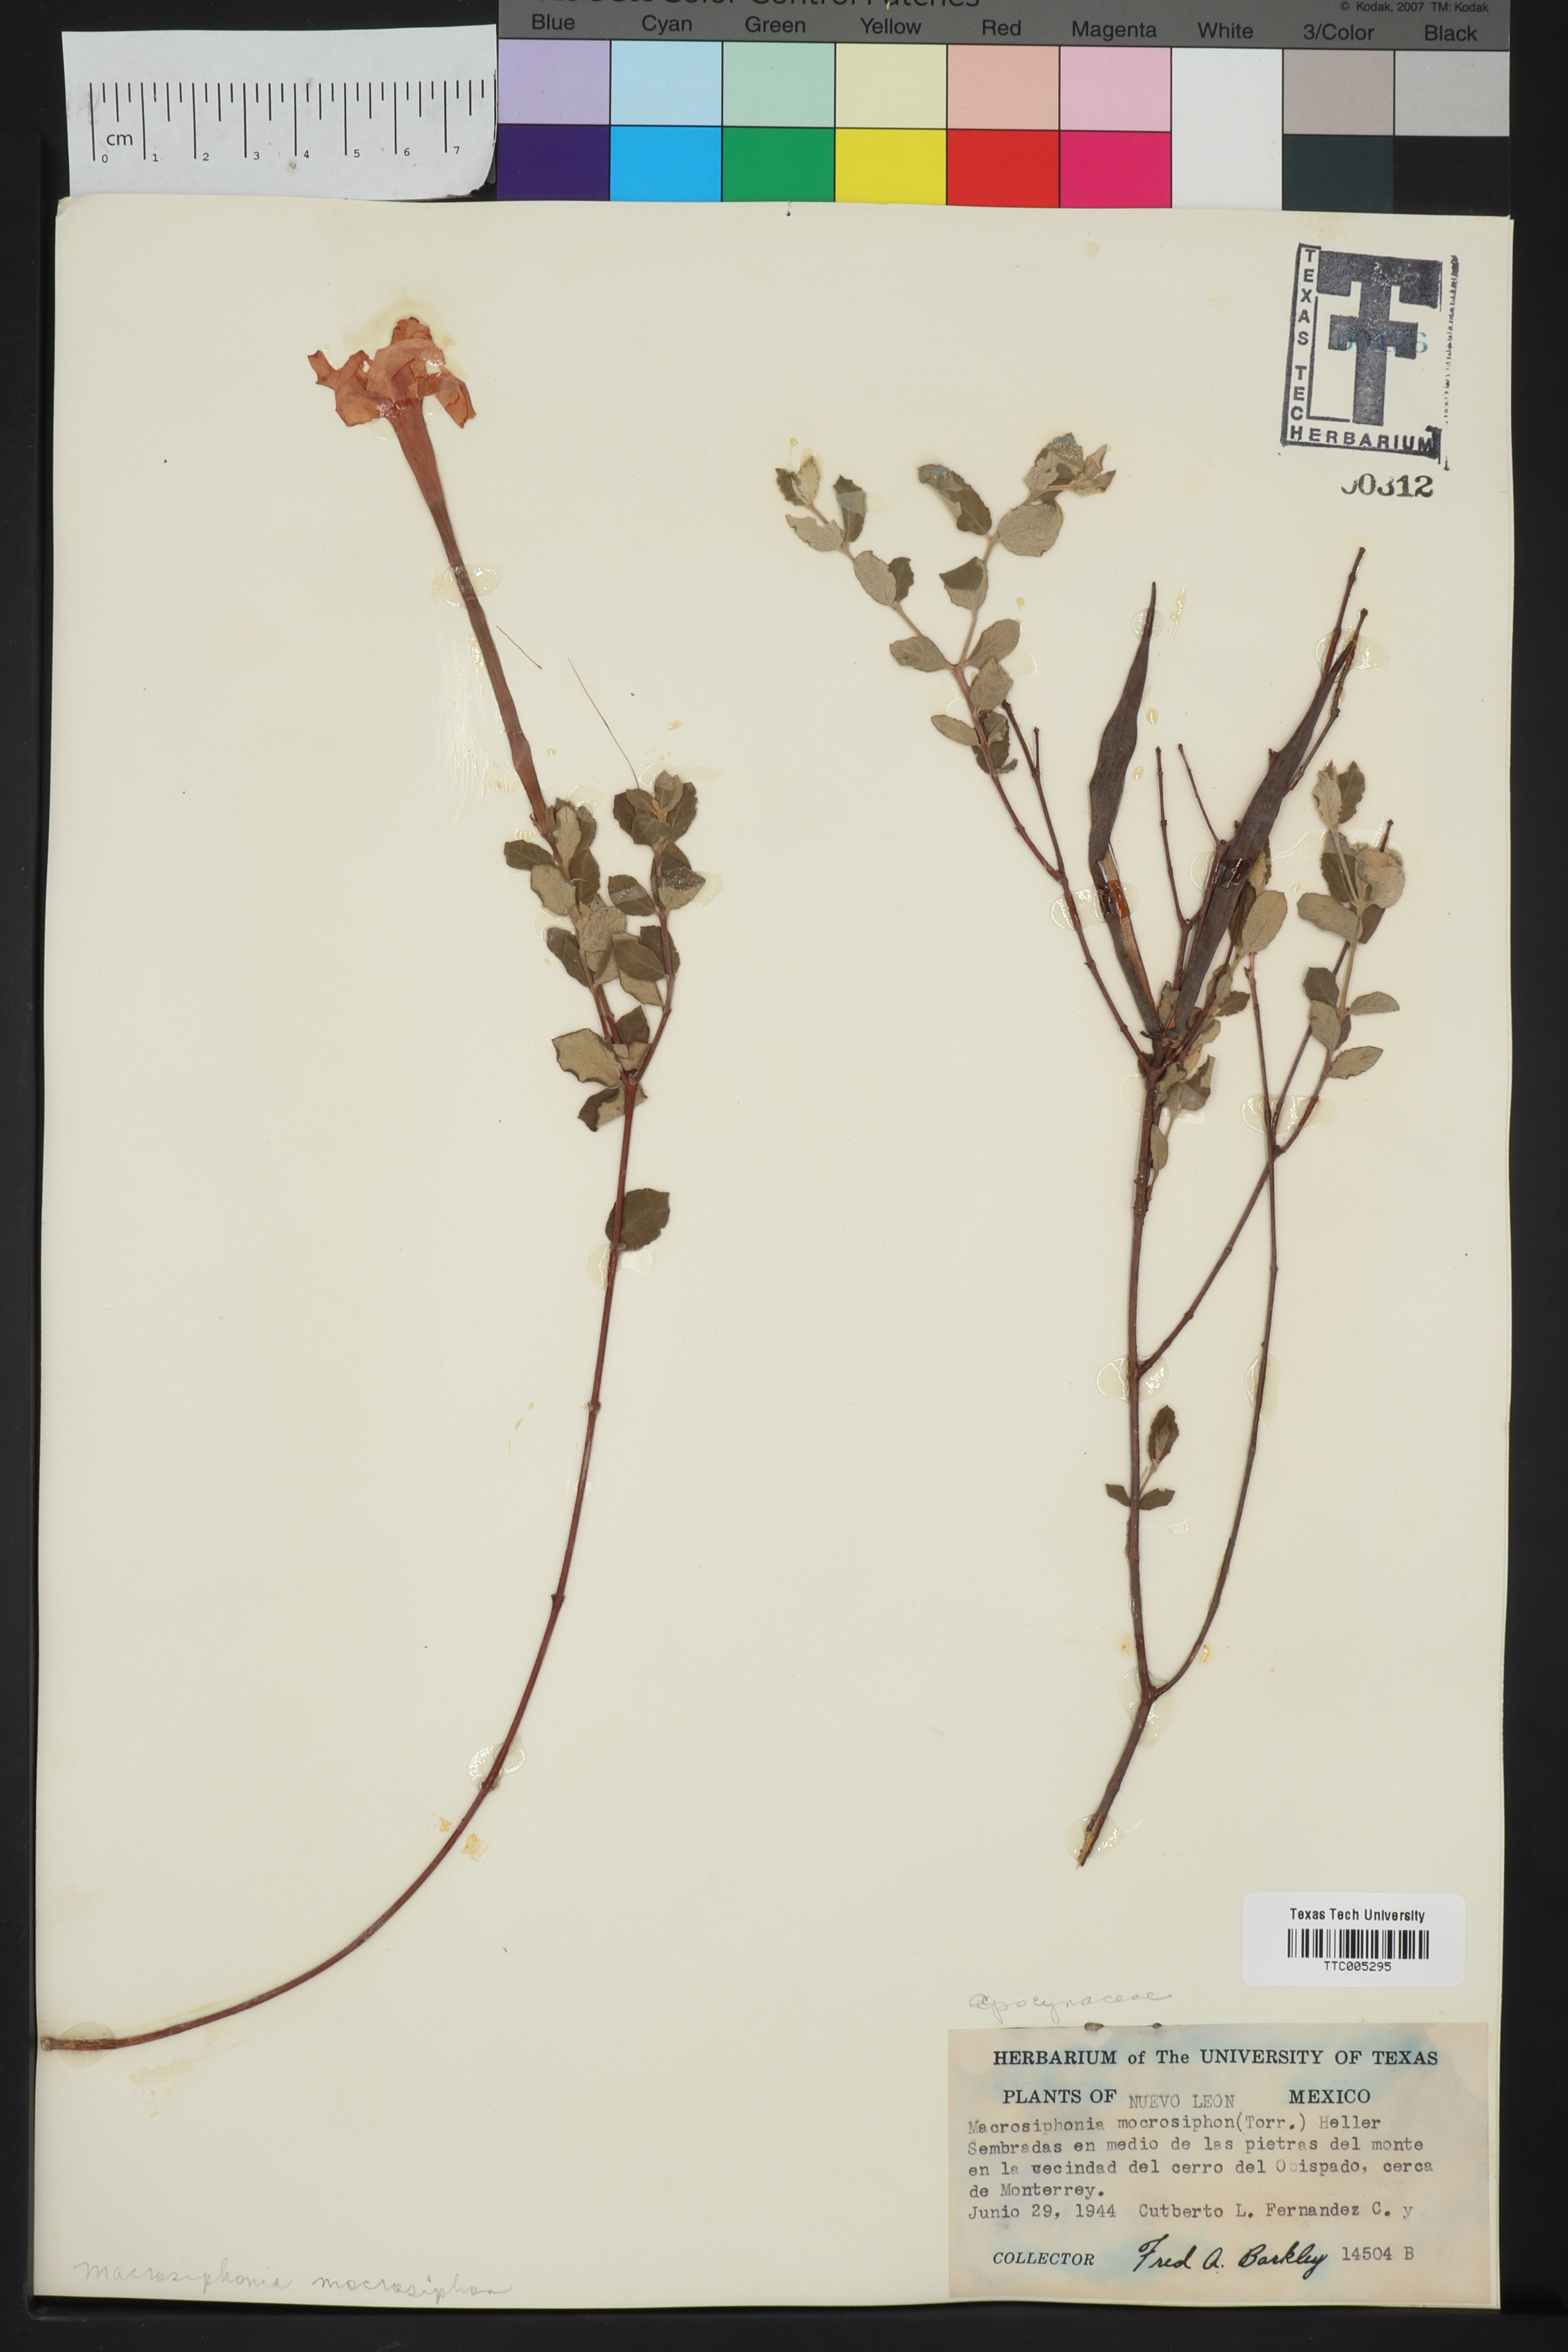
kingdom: Plantae
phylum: Tracheophyta
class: Magnoliopsida
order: Gentianales
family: Rubiaceae
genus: Hindsia
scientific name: Hindsia
